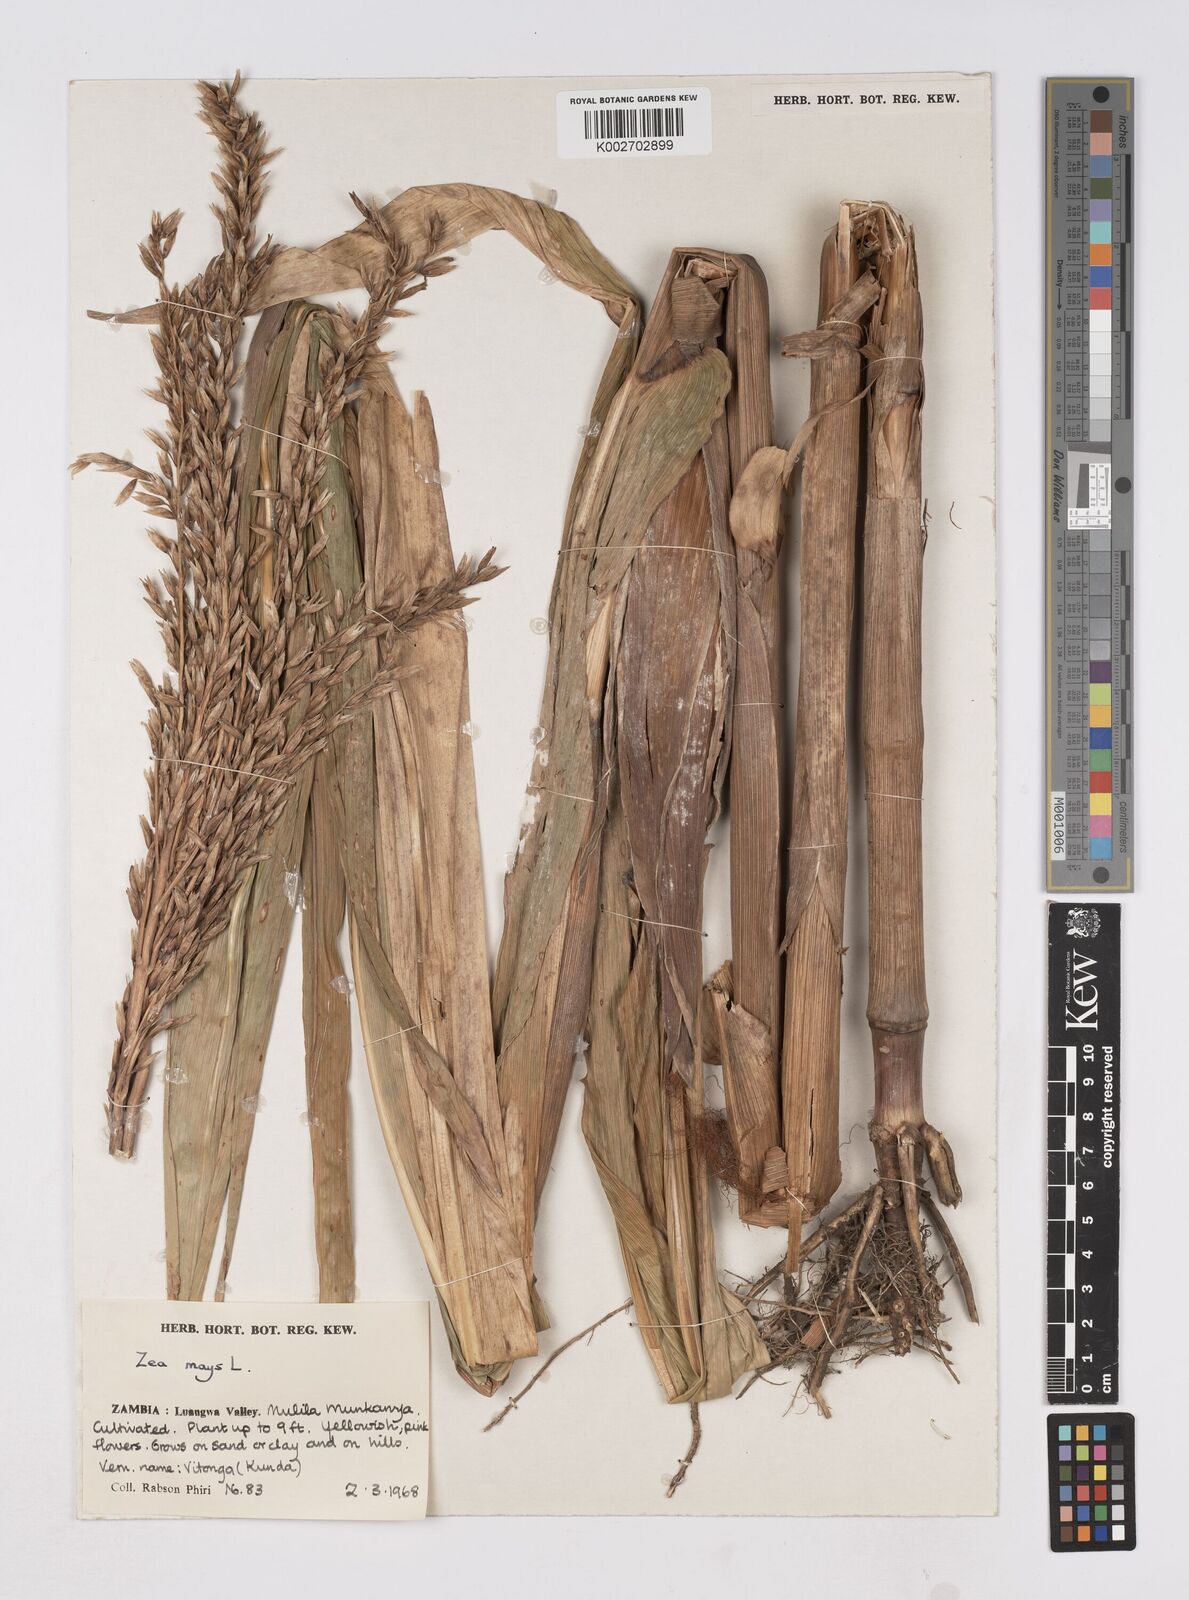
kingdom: Plantae
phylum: Tracheophyta
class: Liliopsida
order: Poales
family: Poaceae
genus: Zea
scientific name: Zea mays
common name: Maize
